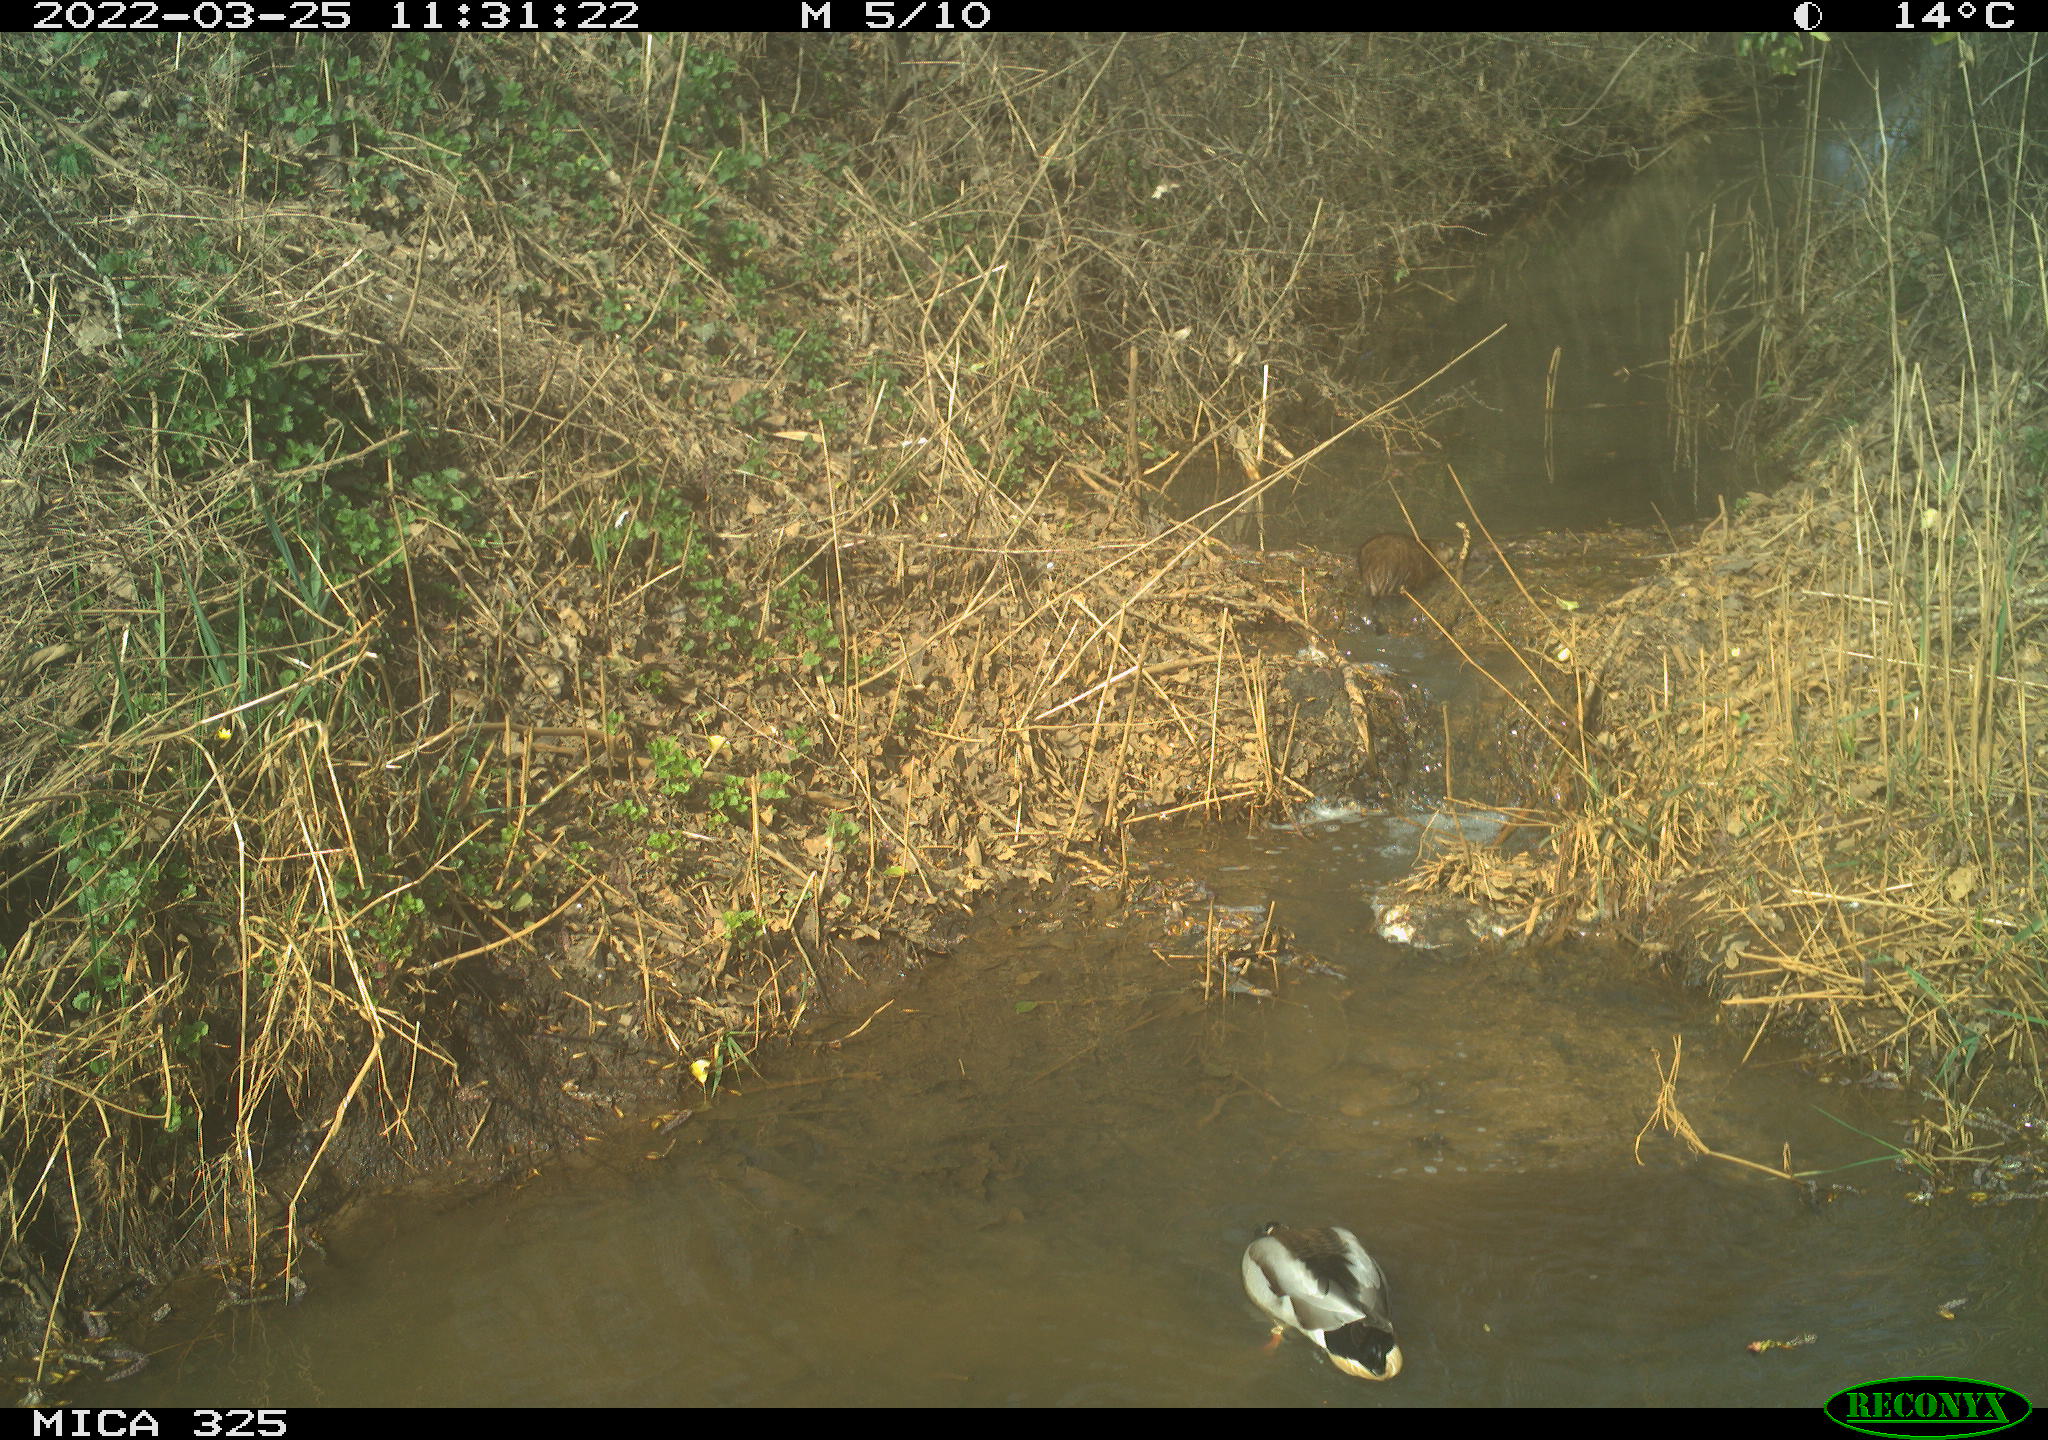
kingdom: Animalia
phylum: Chordata
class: Mammalia
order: Rodentia
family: Cricetidae
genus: Ondatra
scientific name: Ondatra zibethicus
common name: Muskrat
